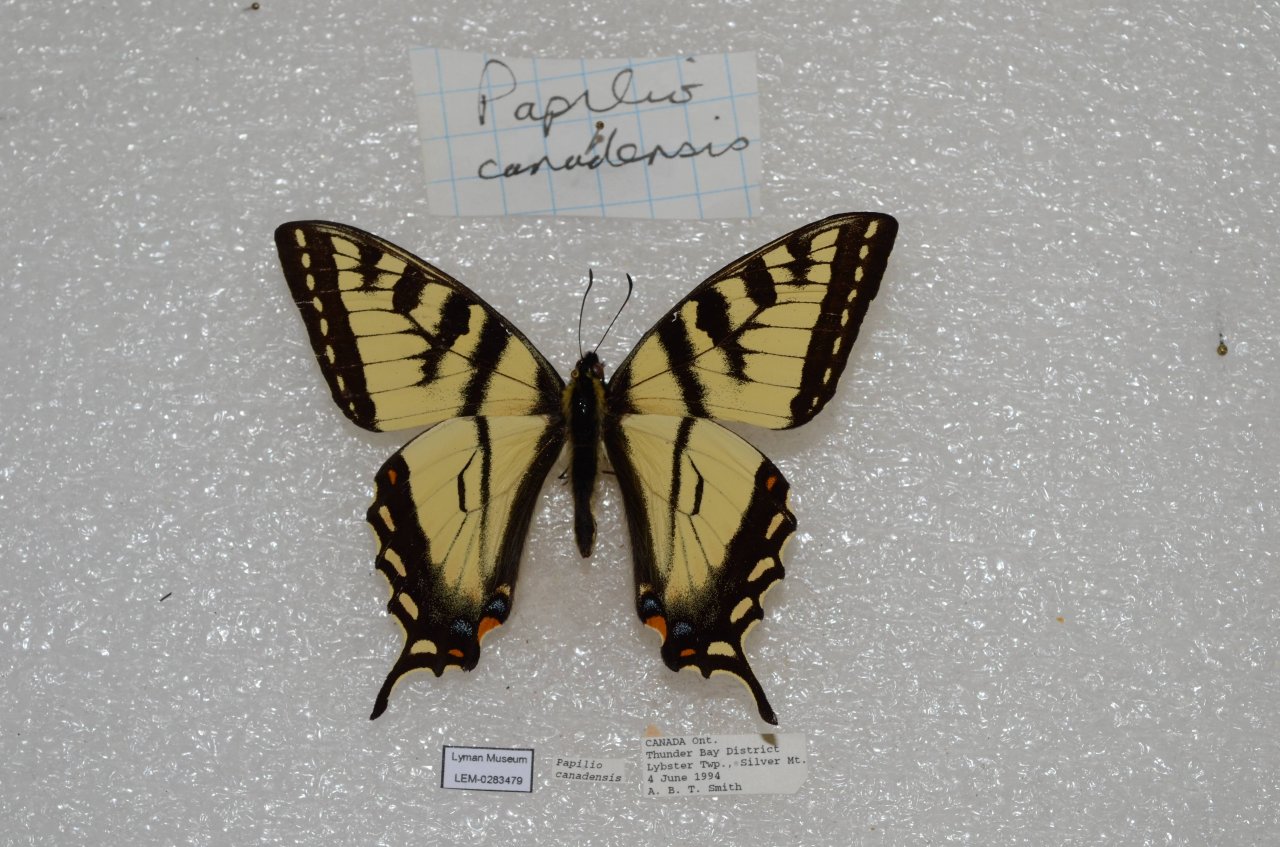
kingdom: Animalia
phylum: Arthropoda
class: Insecta
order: Lepidoptera
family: Papilionidae
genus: Pterourus
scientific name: Pterourus canadensis
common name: Canadian Tiger Swallowtail
